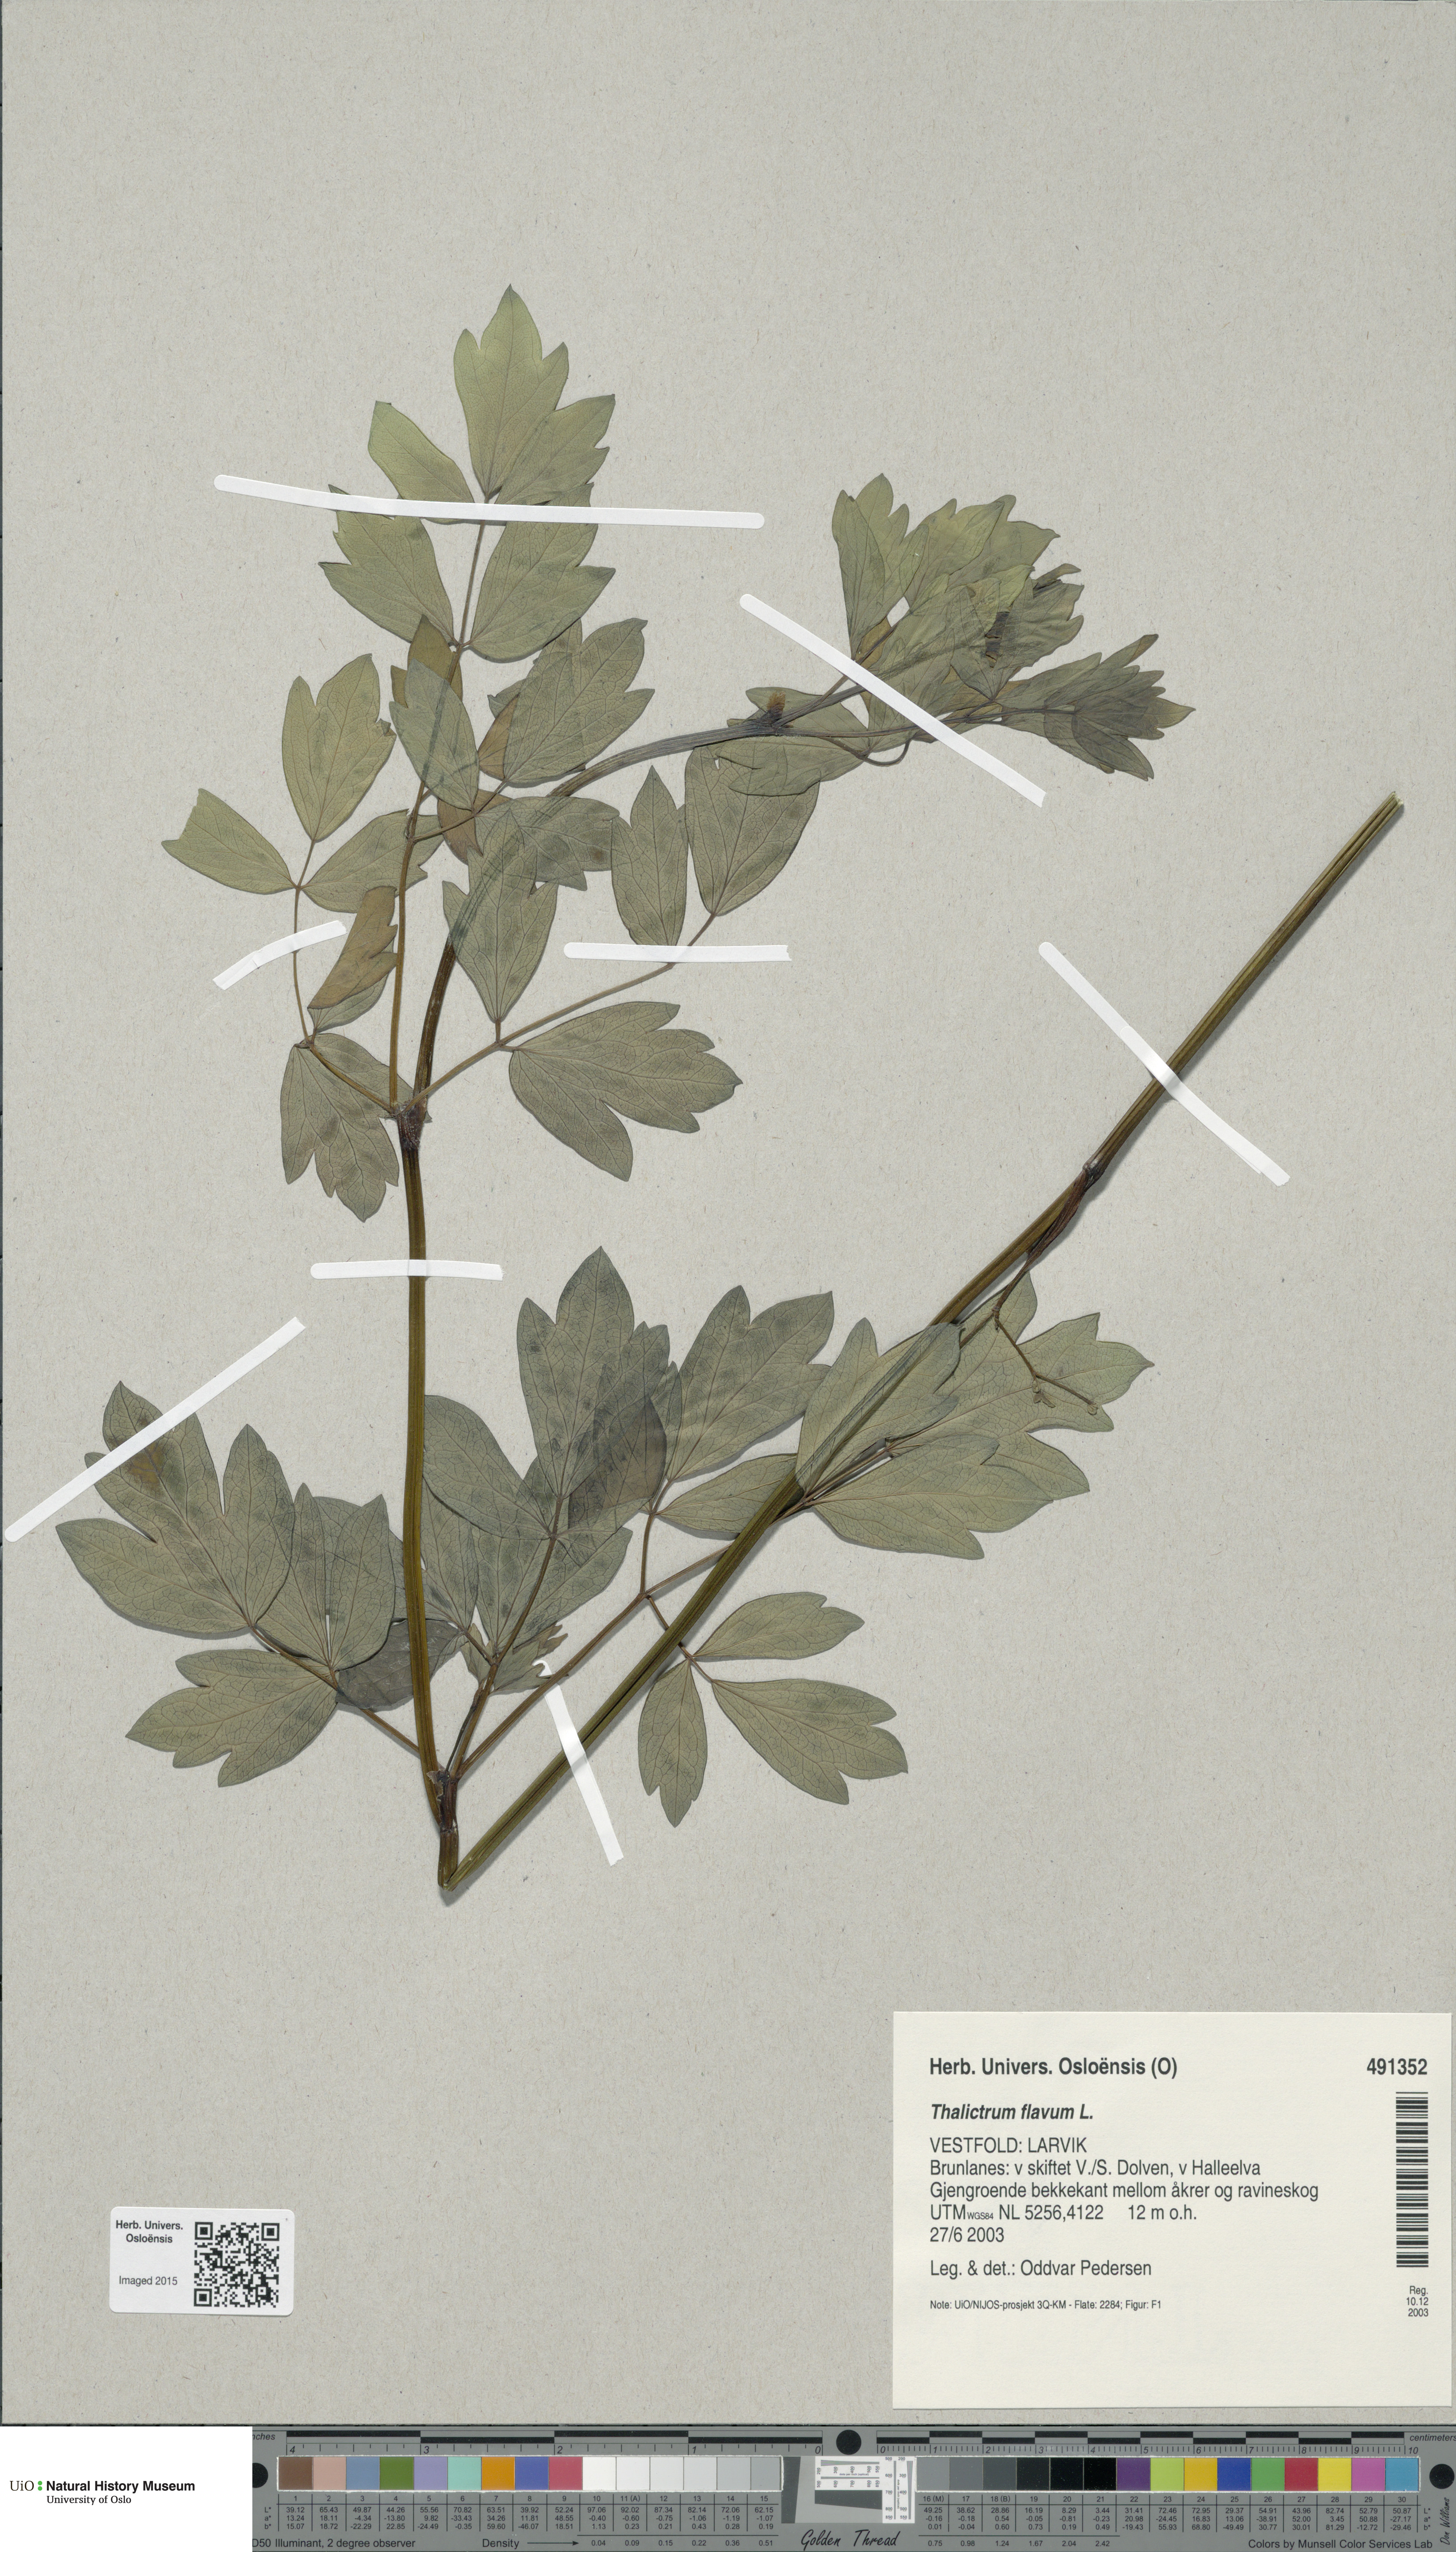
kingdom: Plantae
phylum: Tracheophyta
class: Magnoliopsida
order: Ranunculales
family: Ranunculaceae
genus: Thalictrum
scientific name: Thalictrum flavum
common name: Common meadow-rue
